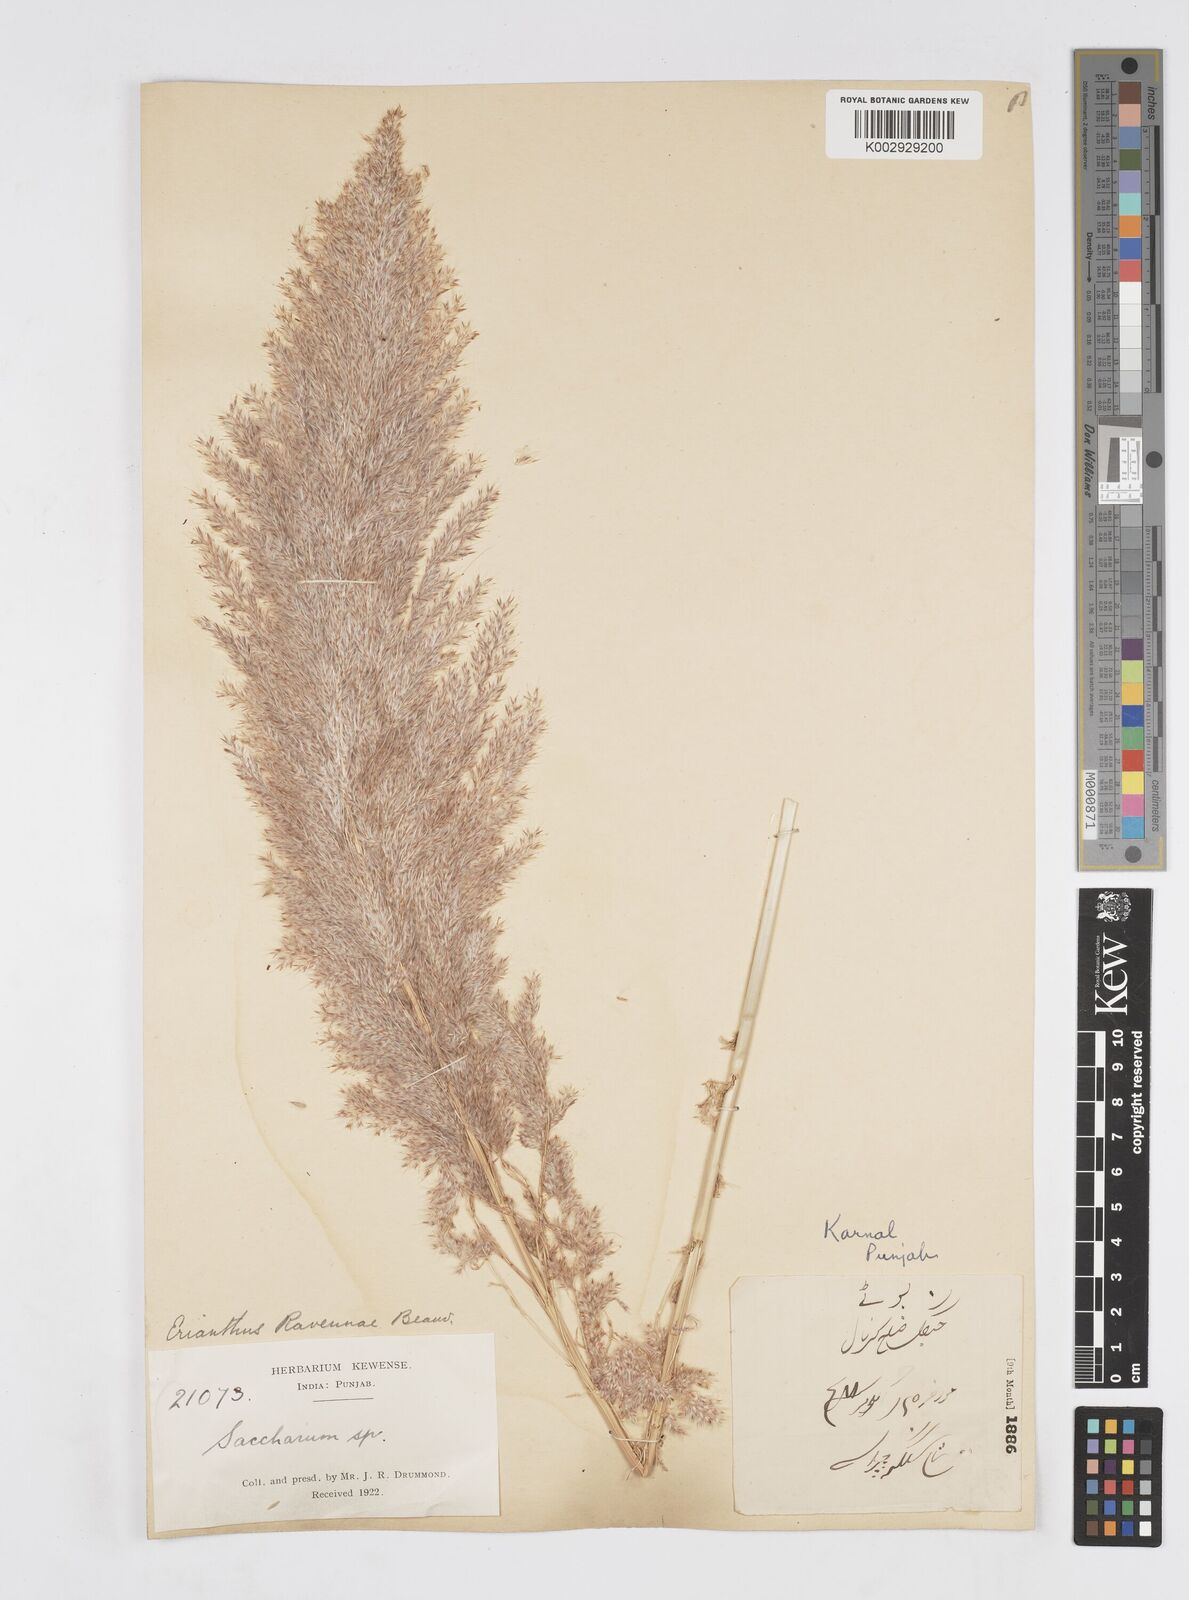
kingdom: Plantae
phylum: Tracheophyta
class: Liliopsida
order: Poales
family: Poaceae
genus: Tripidium
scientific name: Tripidium ravennae
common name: Ravenna grass
